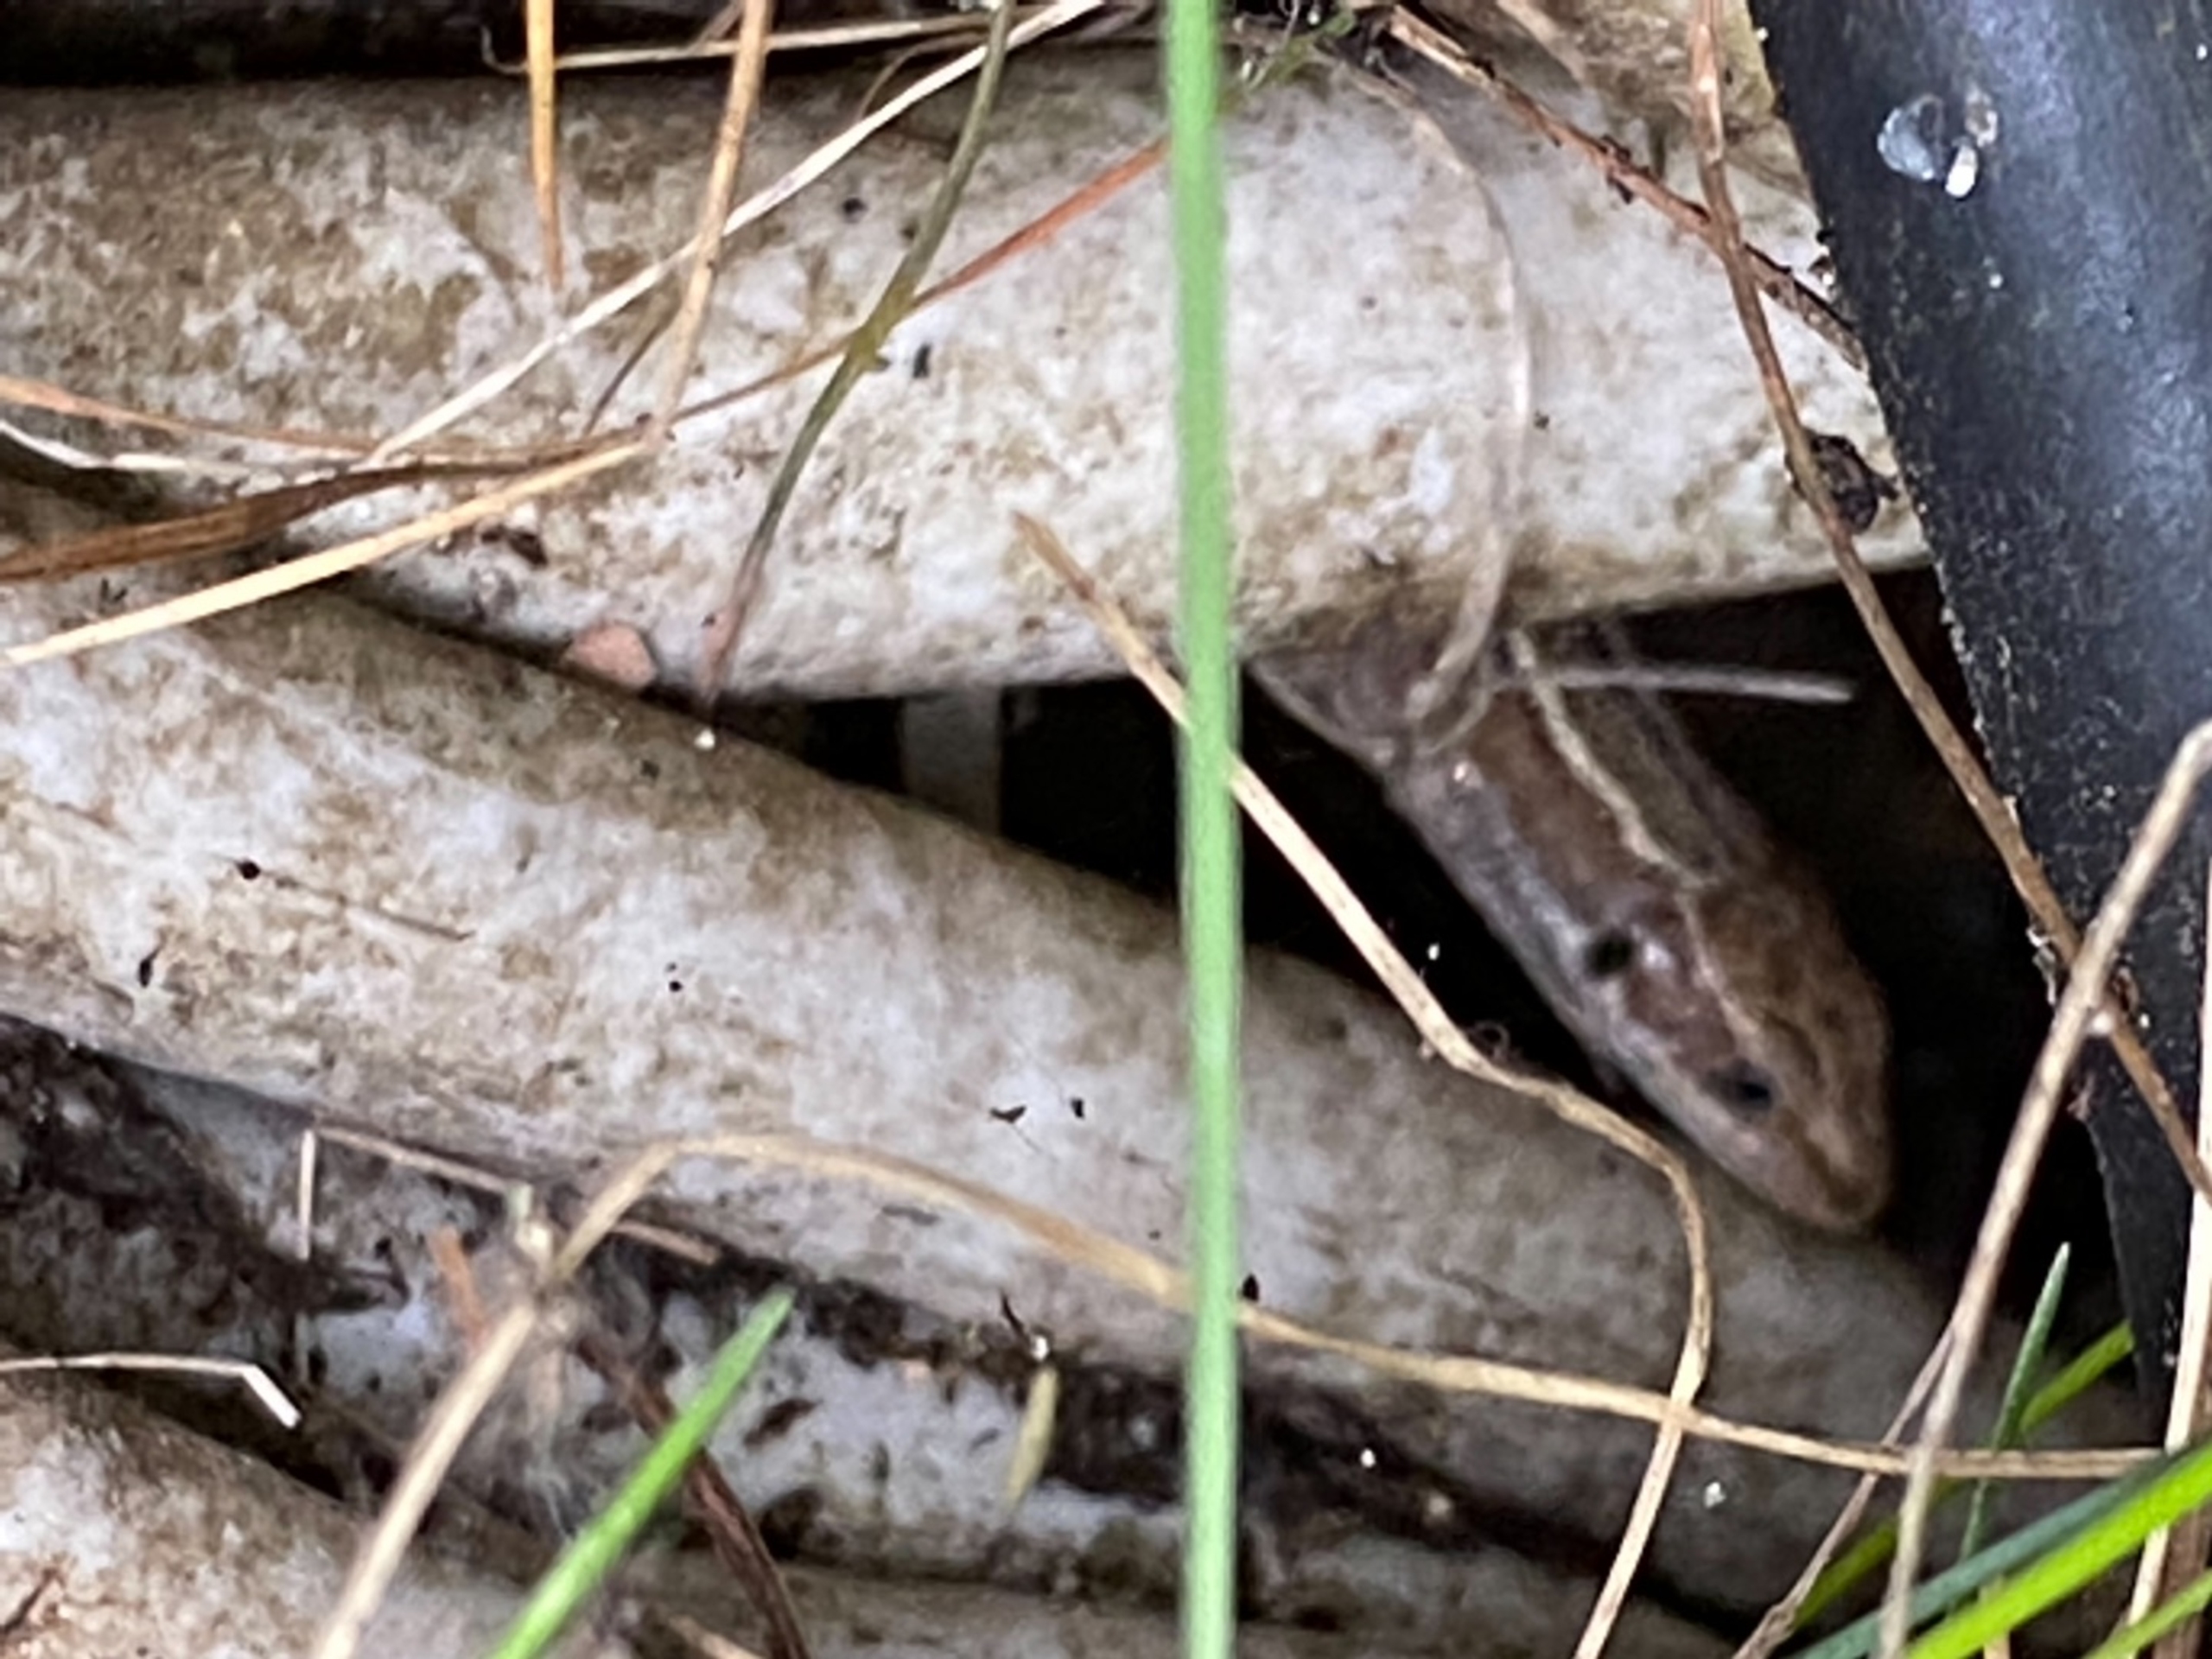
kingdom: Animalia
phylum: Chordata
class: Squamata
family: Lacertidae
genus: Zootoca
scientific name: Zootoca vivipara
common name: Skovfirben
